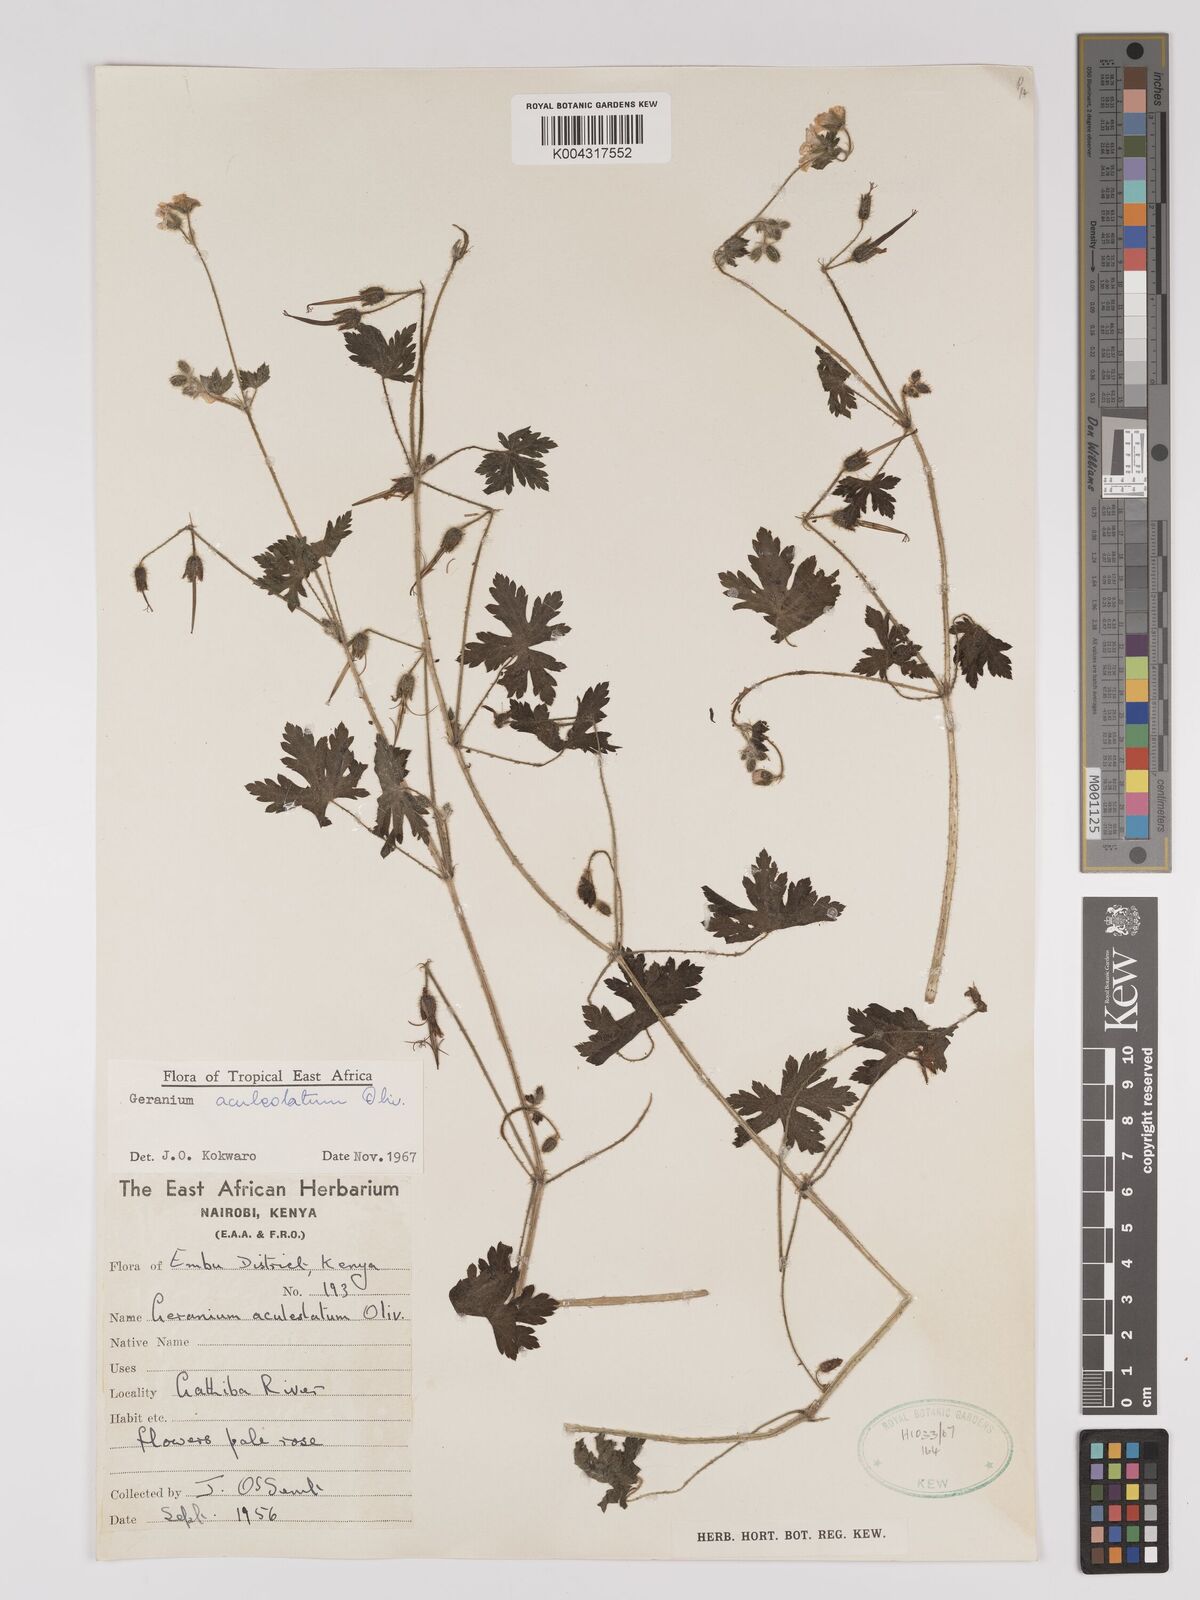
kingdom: Plantae
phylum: Tracheophyta
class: Magnoliopsida
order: Geraniales
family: Geraniaceae
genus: Geranium
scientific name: Geranium aculeolatum
